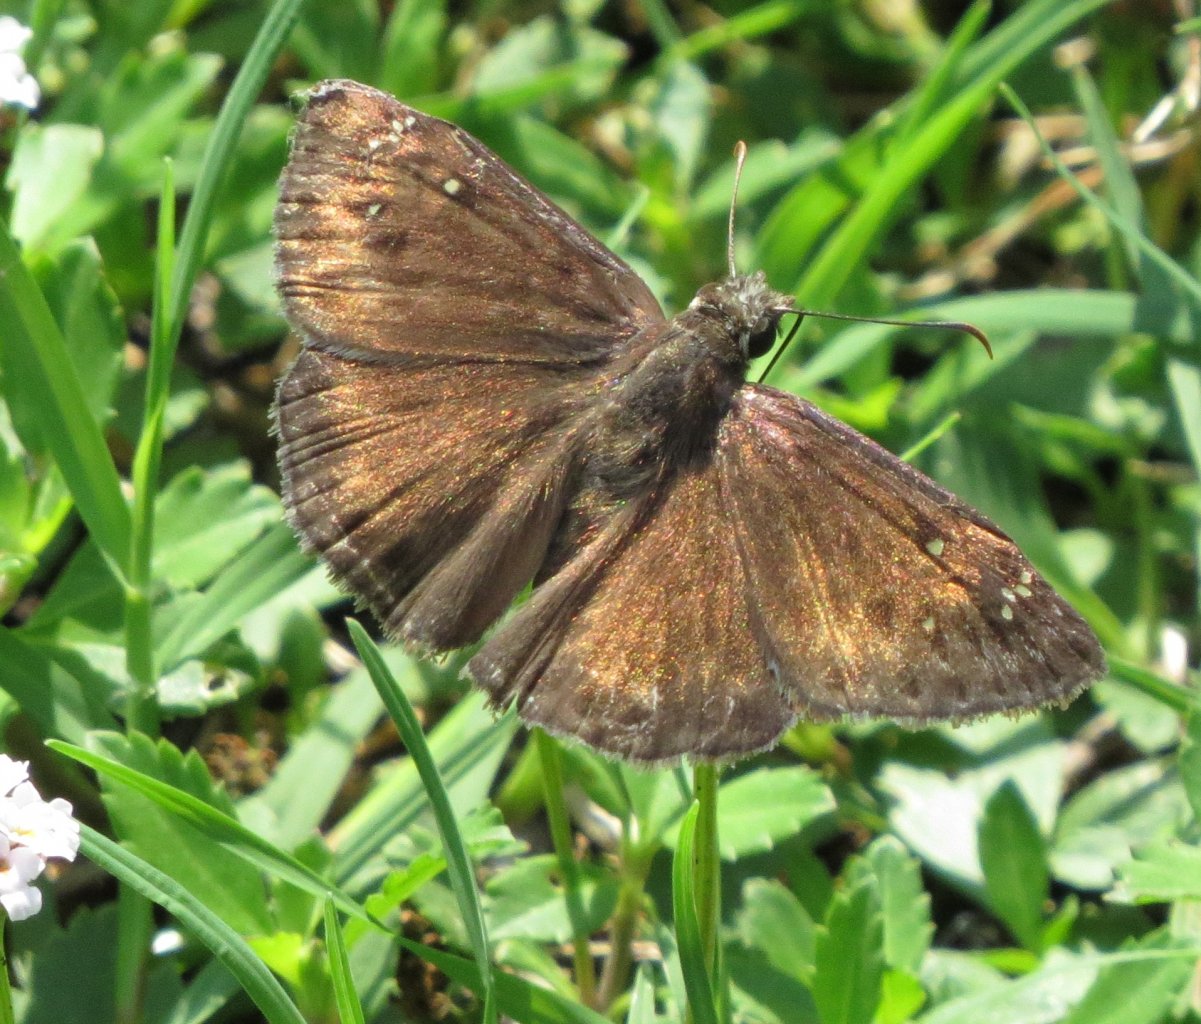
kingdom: Animalia
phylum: Arthropoda
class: Insecta
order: Lepidoptera
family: Hesperiidae
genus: Gesta
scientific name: Gesta
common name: Horace's Duskywing
